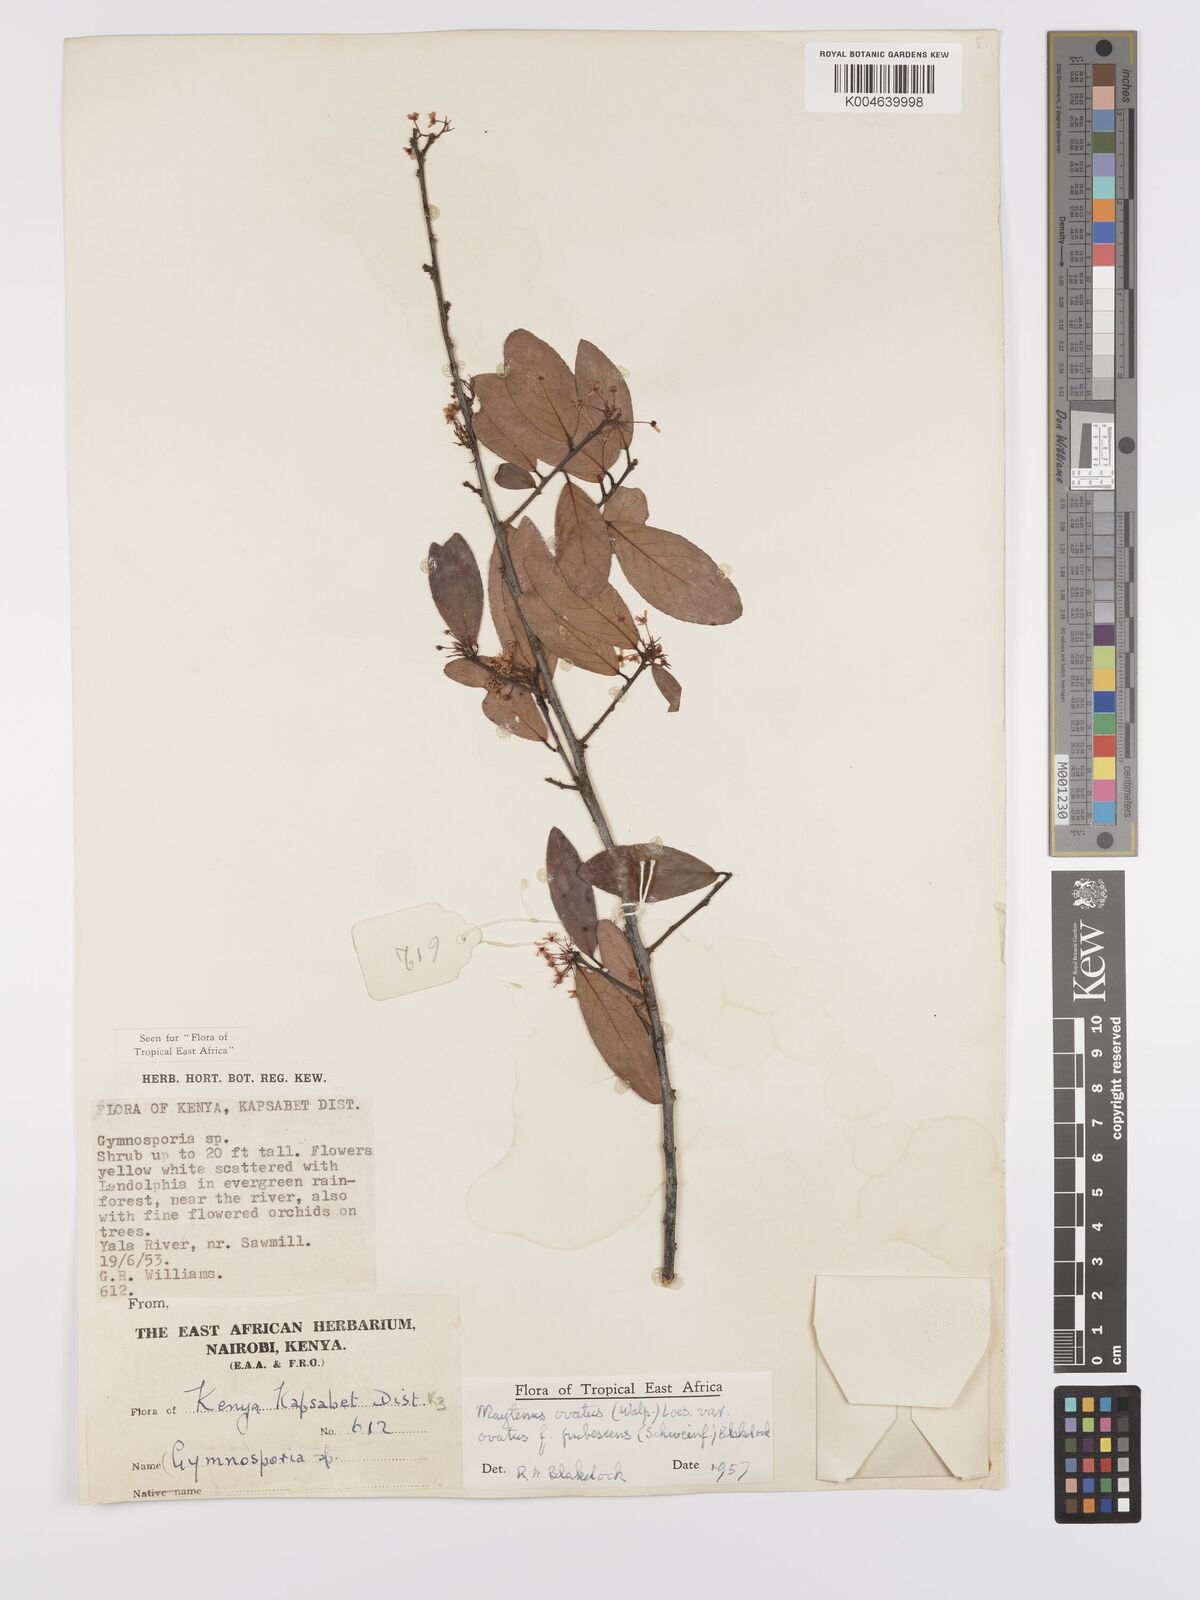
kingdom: Plantae
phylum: Tracheophyta
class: Magnoliopsida
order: Celastrales
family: Celastraceae
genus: Gymnosporia
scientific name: Gymnosporia arbutifolia
